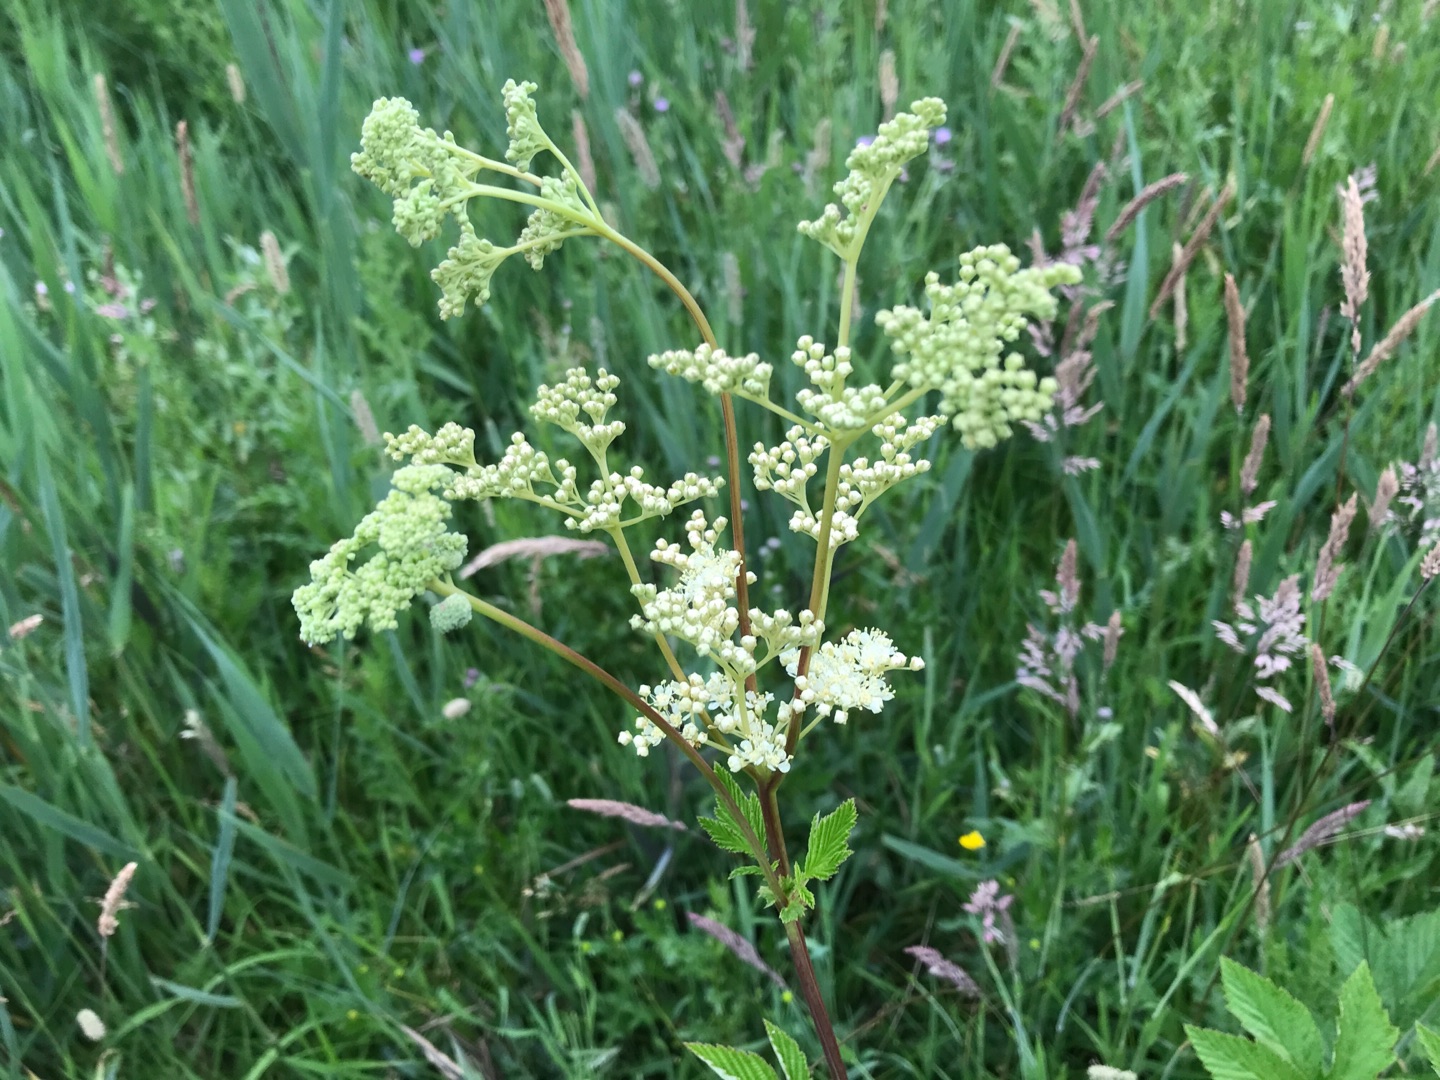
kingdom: Plantae
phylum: Tracheophyta
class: Magnoliopsida
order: Rosales
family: Rosaceae
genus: Filipendula
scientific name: Filipendula ulmaria
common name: Almindelig mjødurt
